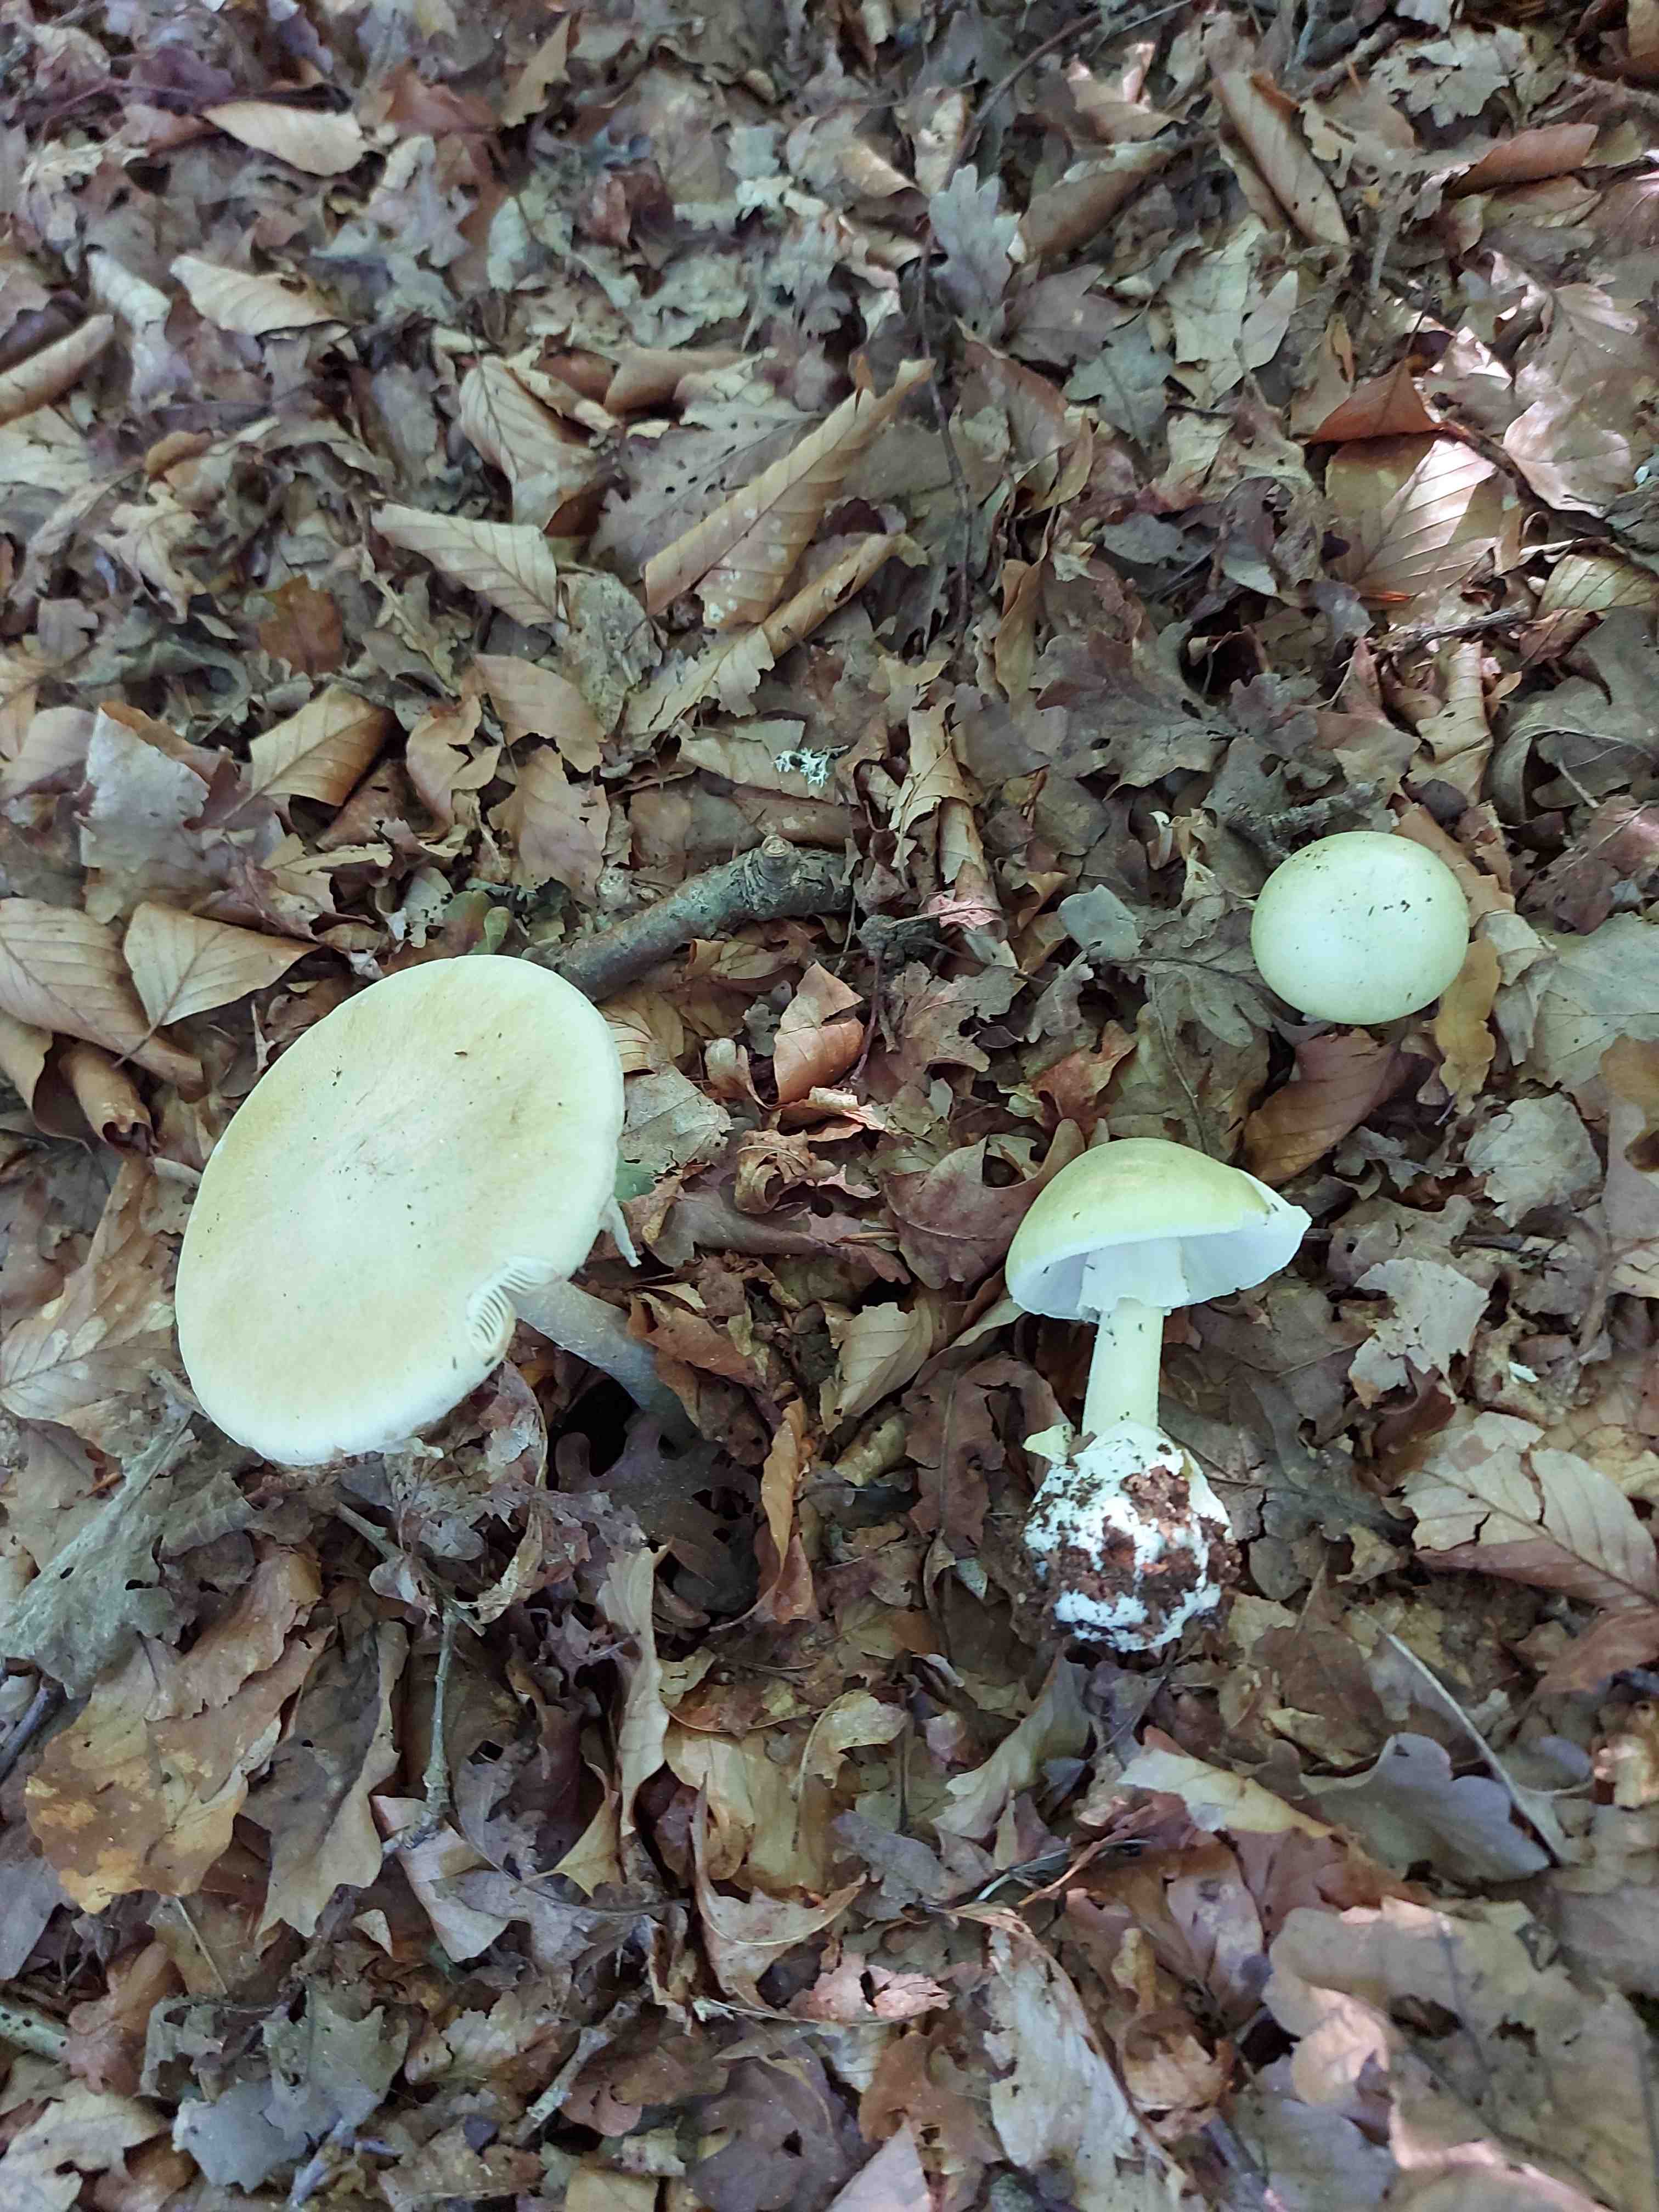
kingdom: Fungi
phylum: Basidiomycota
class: Agaricomycetes
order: Agaricales
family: Amanitaceae
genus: Amanita
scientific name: Amanita phalloides
